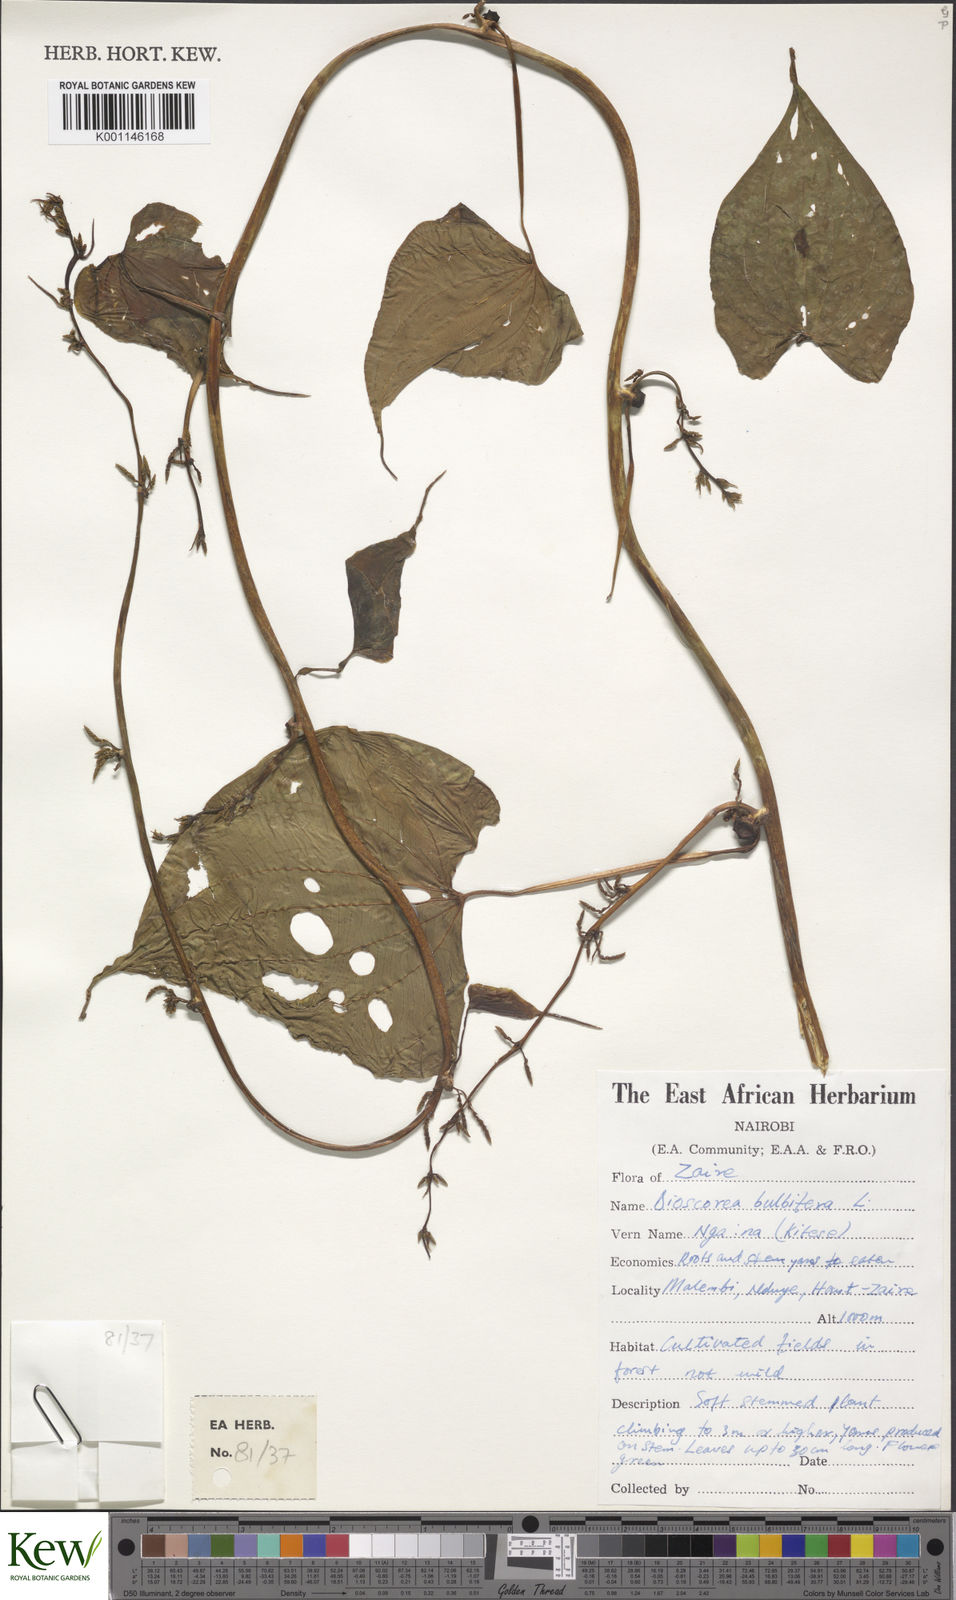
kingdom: Plantae
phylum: Tracheophyta
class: Liliopsida
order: Dioscoreales
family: Dioscoreaceae
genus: Dioscorea
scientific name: Dioscorea bulbifera
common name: Air yam
